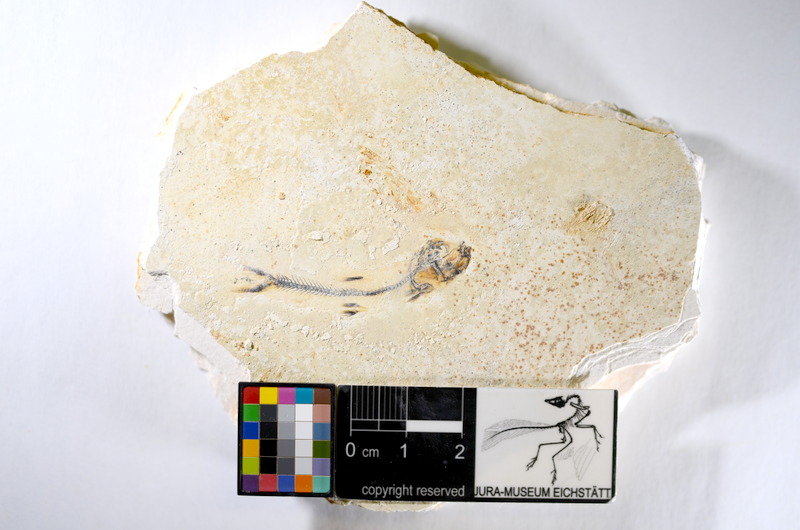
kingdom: Animalia
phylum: Chordata
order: Salmoniformes
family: Orthogonikleithridae
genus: Orthogonikleithrus
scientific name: Orthogonikleithrus hoelli
